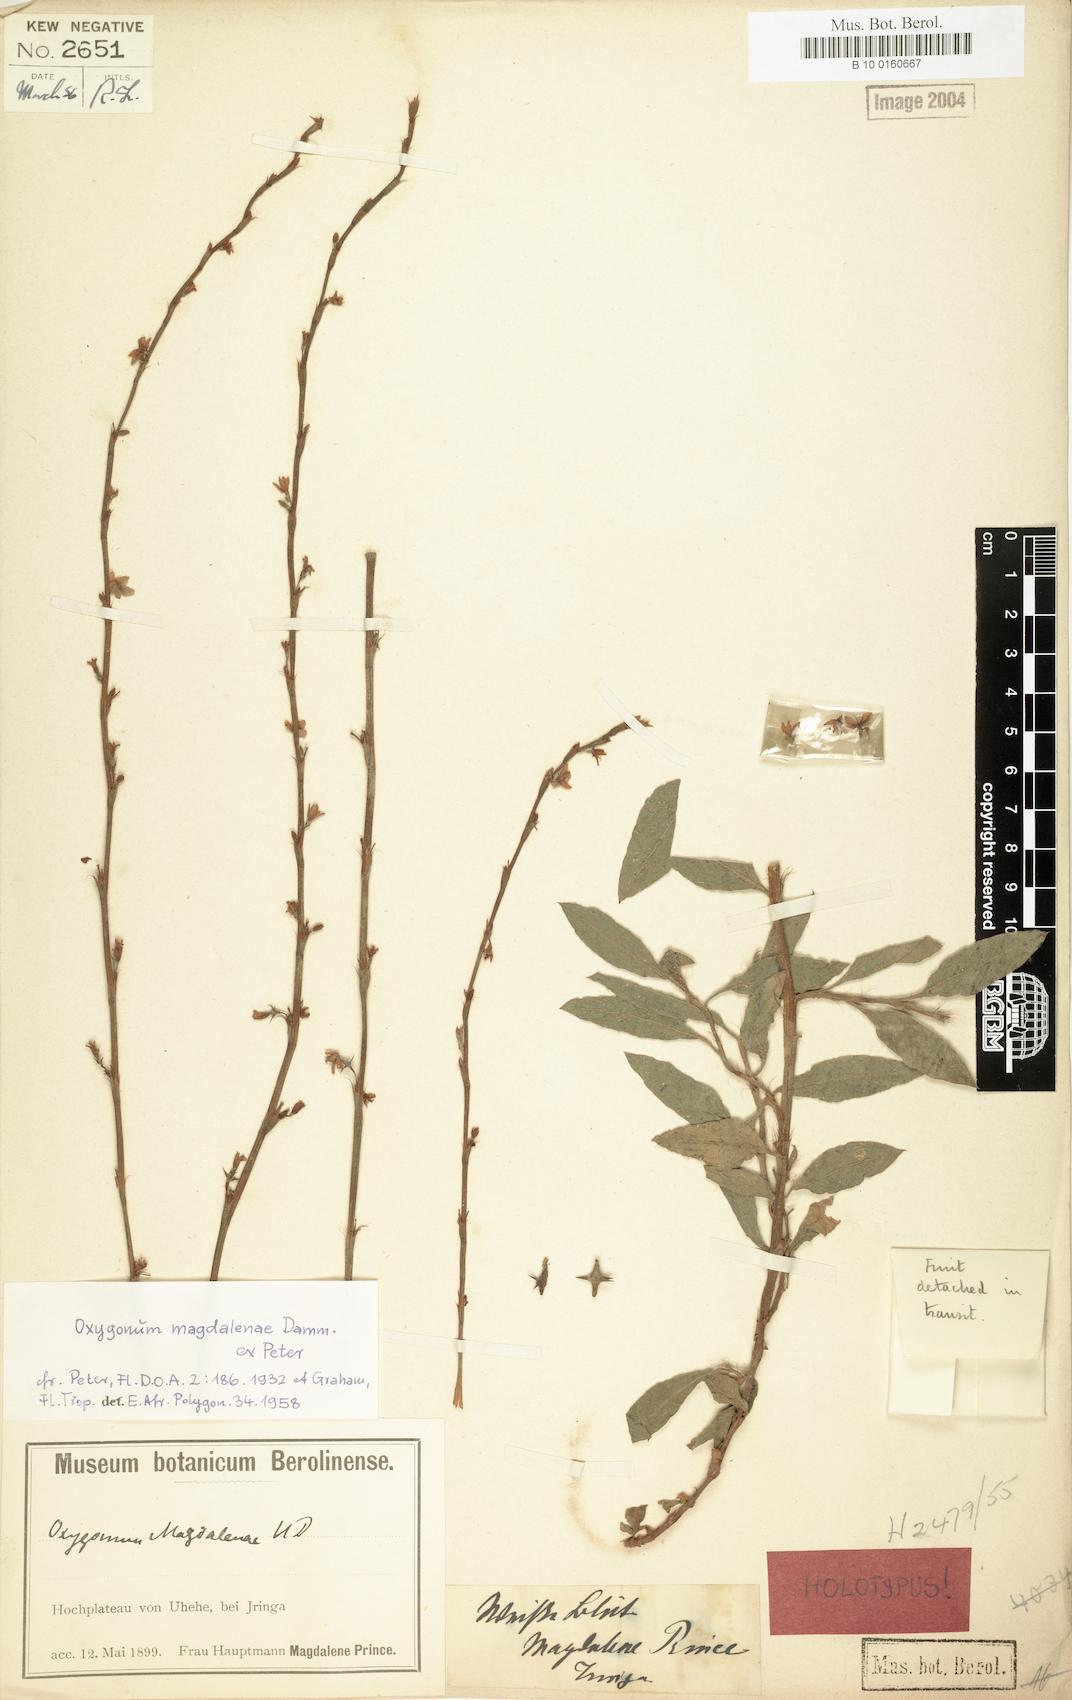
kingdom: Plantae
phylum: Tracheophyta
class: Magnoliopsida
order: Caryophyllales
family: Polygonaceae
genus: Oxygonum
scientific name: Oxygonum magdalenae
